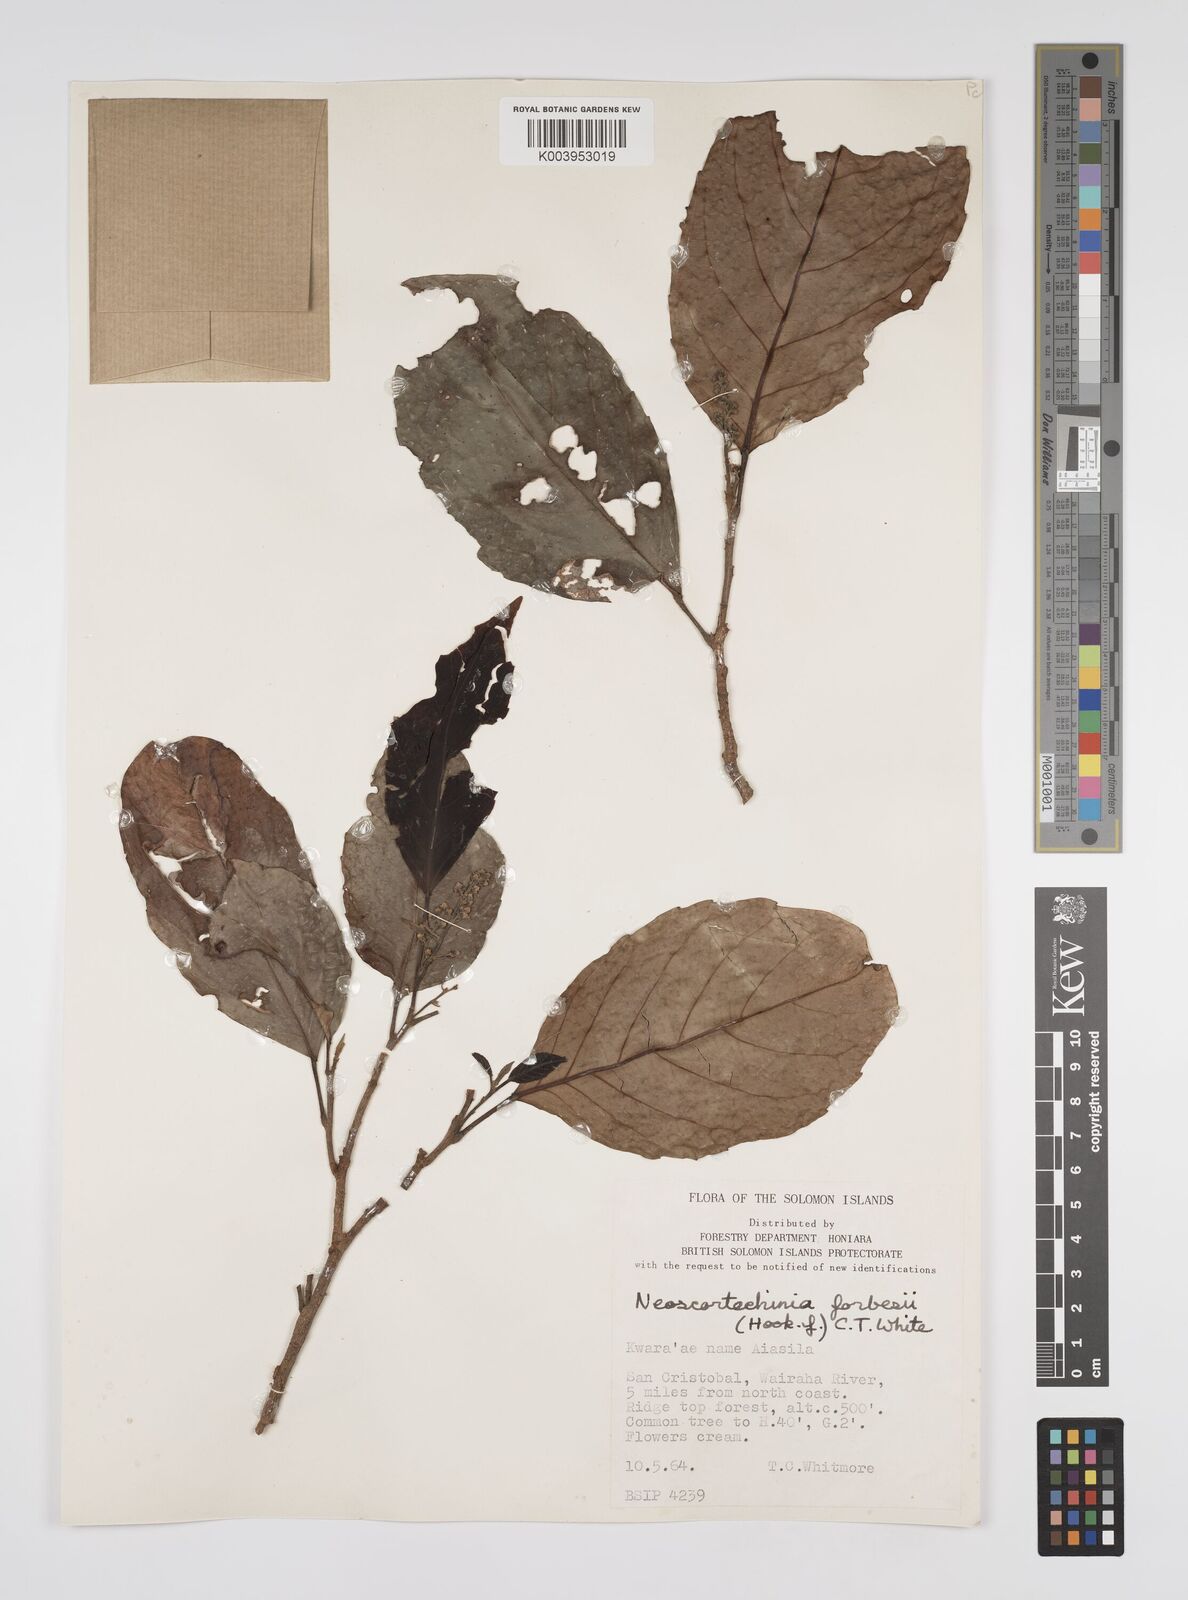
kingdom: Plantae
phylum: Tracheophyta
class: Magnoliopsida
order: Malpighiales
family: Euphorbiaceae
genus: Neoscortechinia
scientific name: Neoscortechinia forbesii
